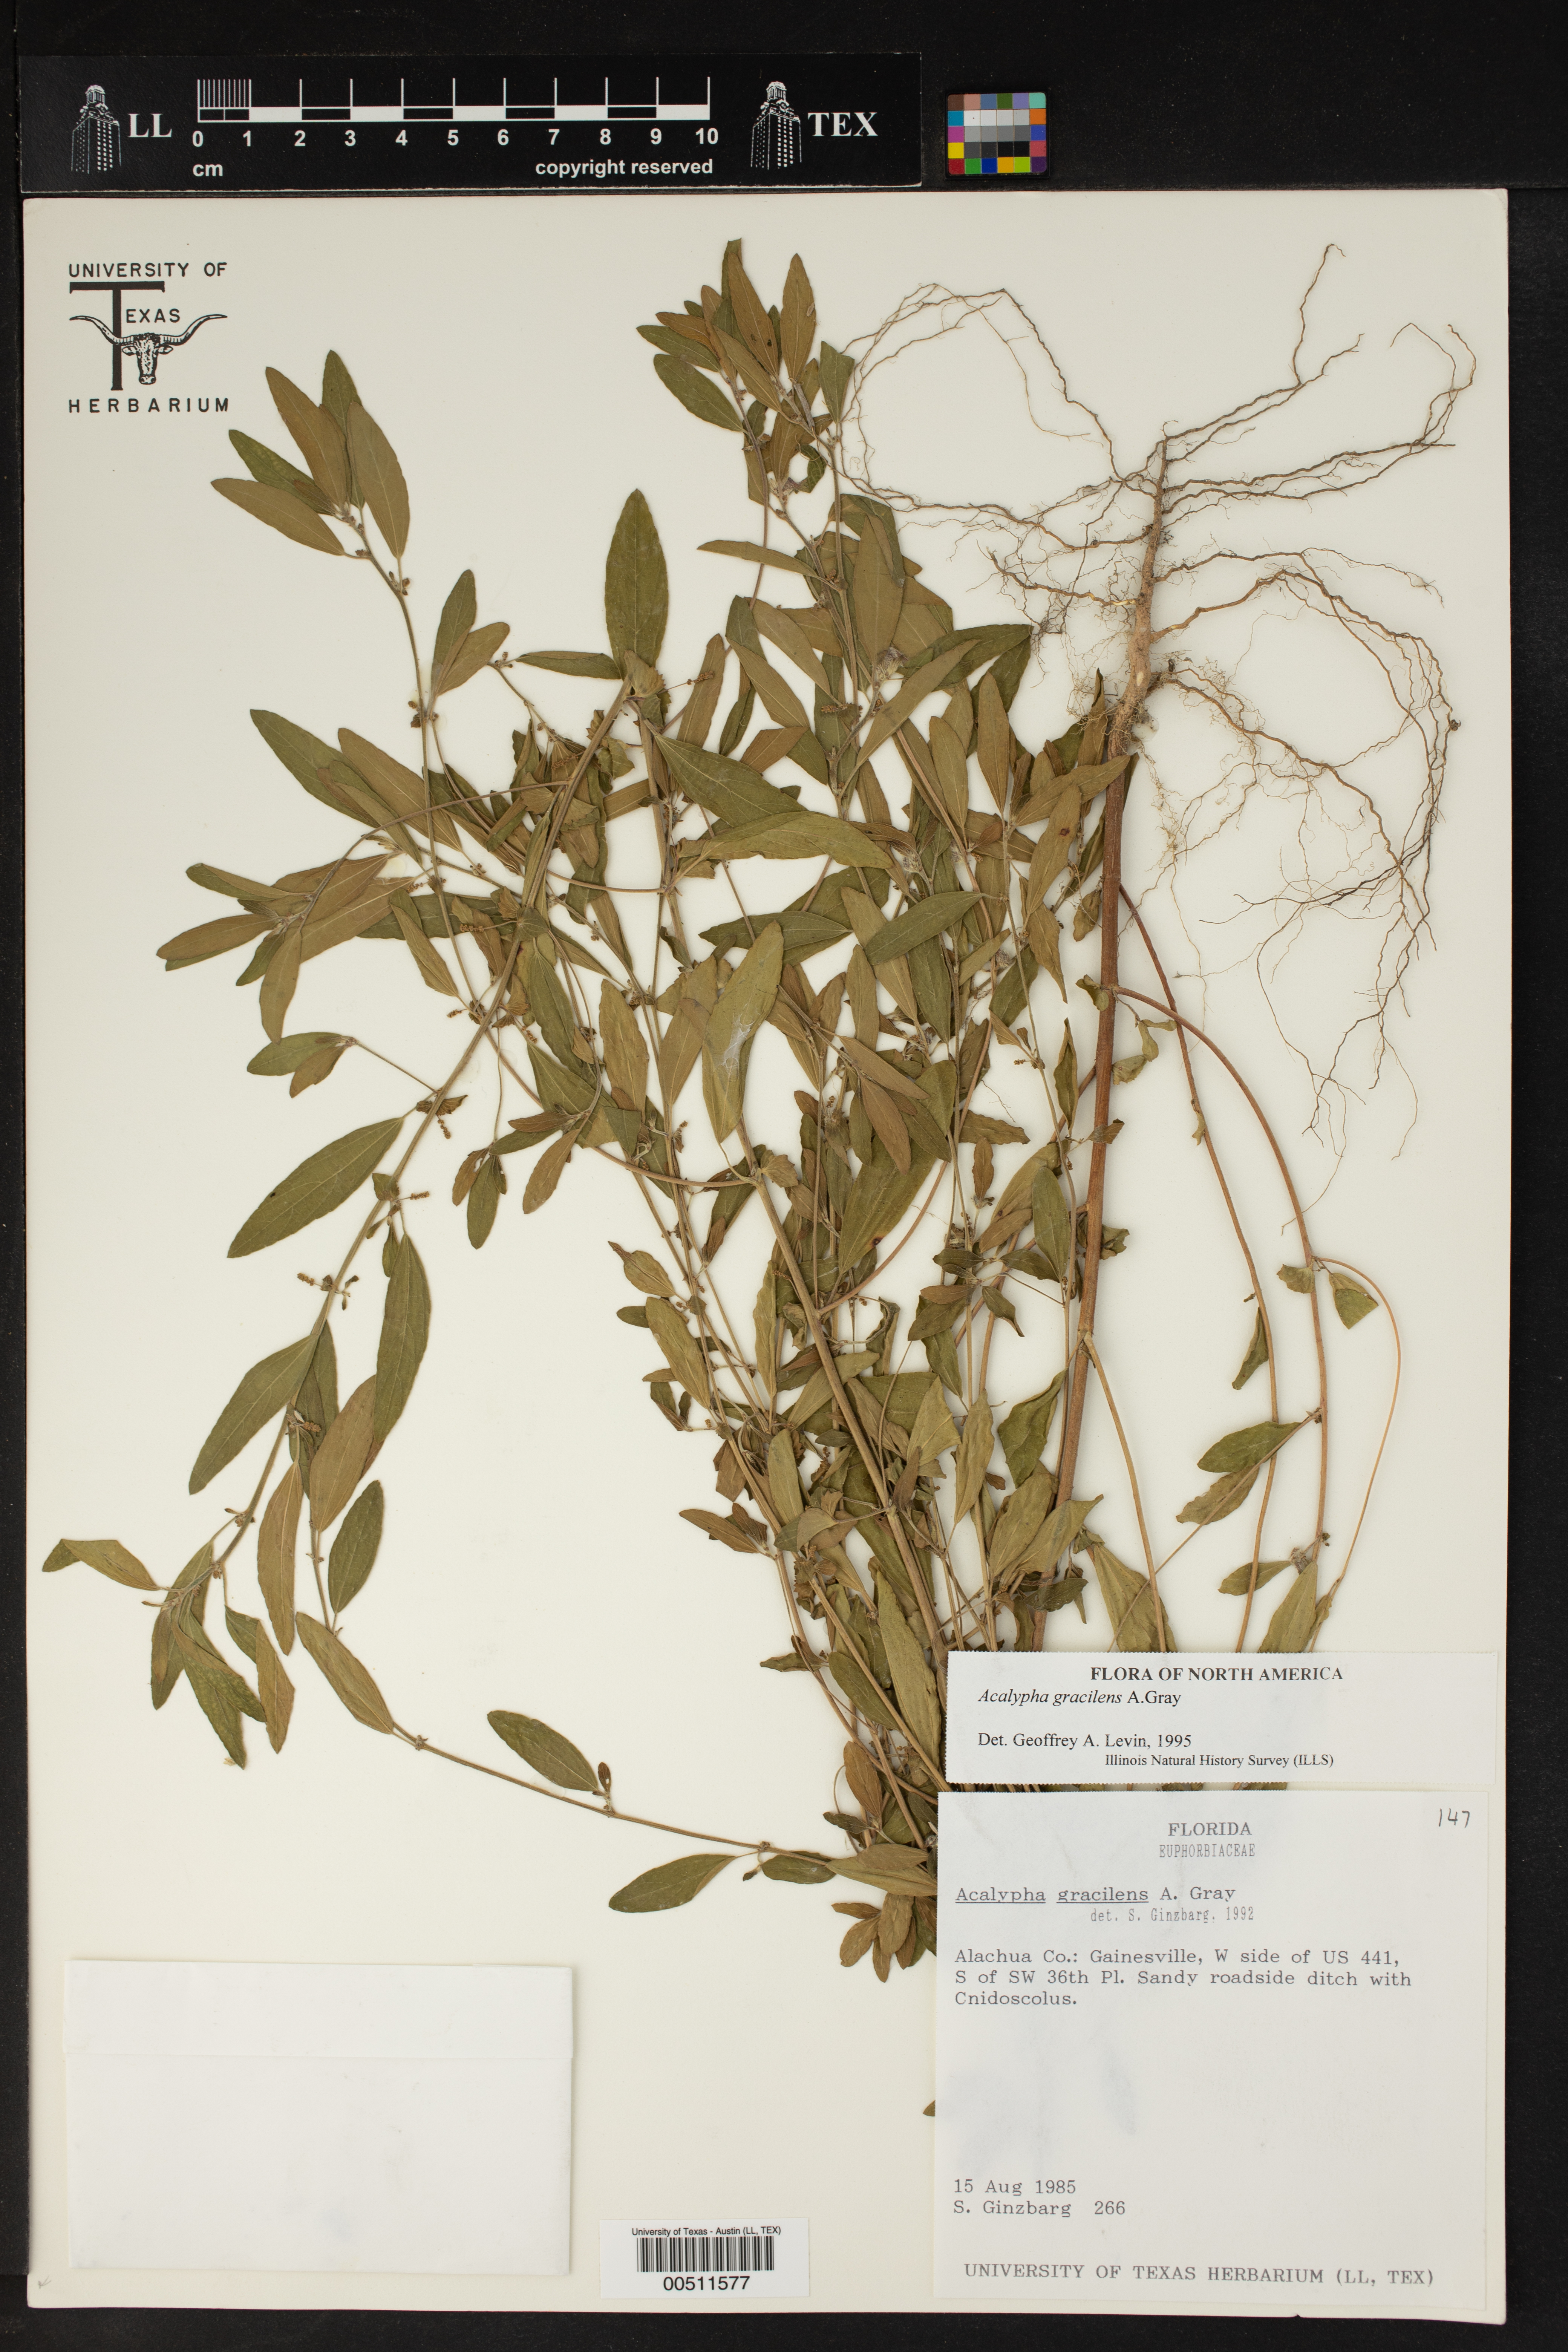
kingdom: Plantae
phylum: Tracheophyta
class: Magnoliopsida
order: Malpighiales
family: Euphorbiaceae
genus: Acalypha
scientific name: Acalypha gracilens
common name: Slender three-seeded mercury
